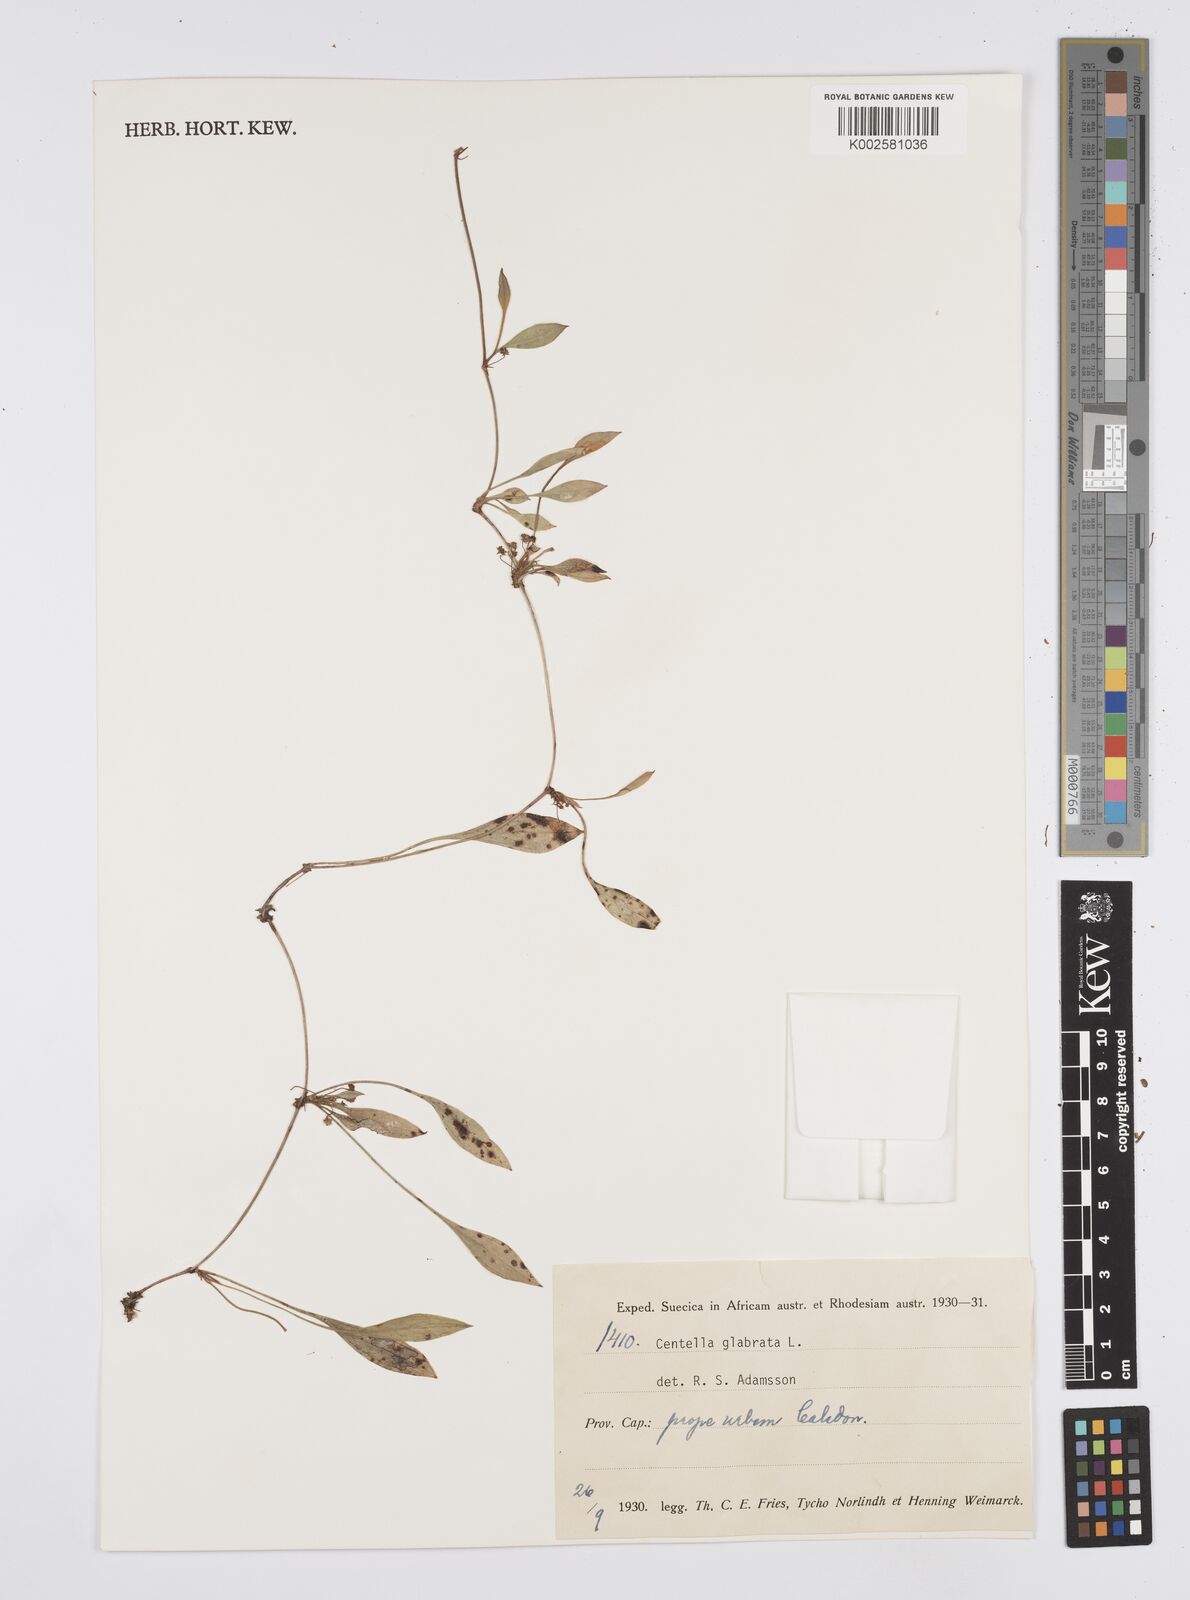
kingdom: Plantae
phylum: Tracheophyta
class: Magnoliopsida
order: Apiales
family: Apiaceae
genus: Centella
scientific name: Centella glabrata
